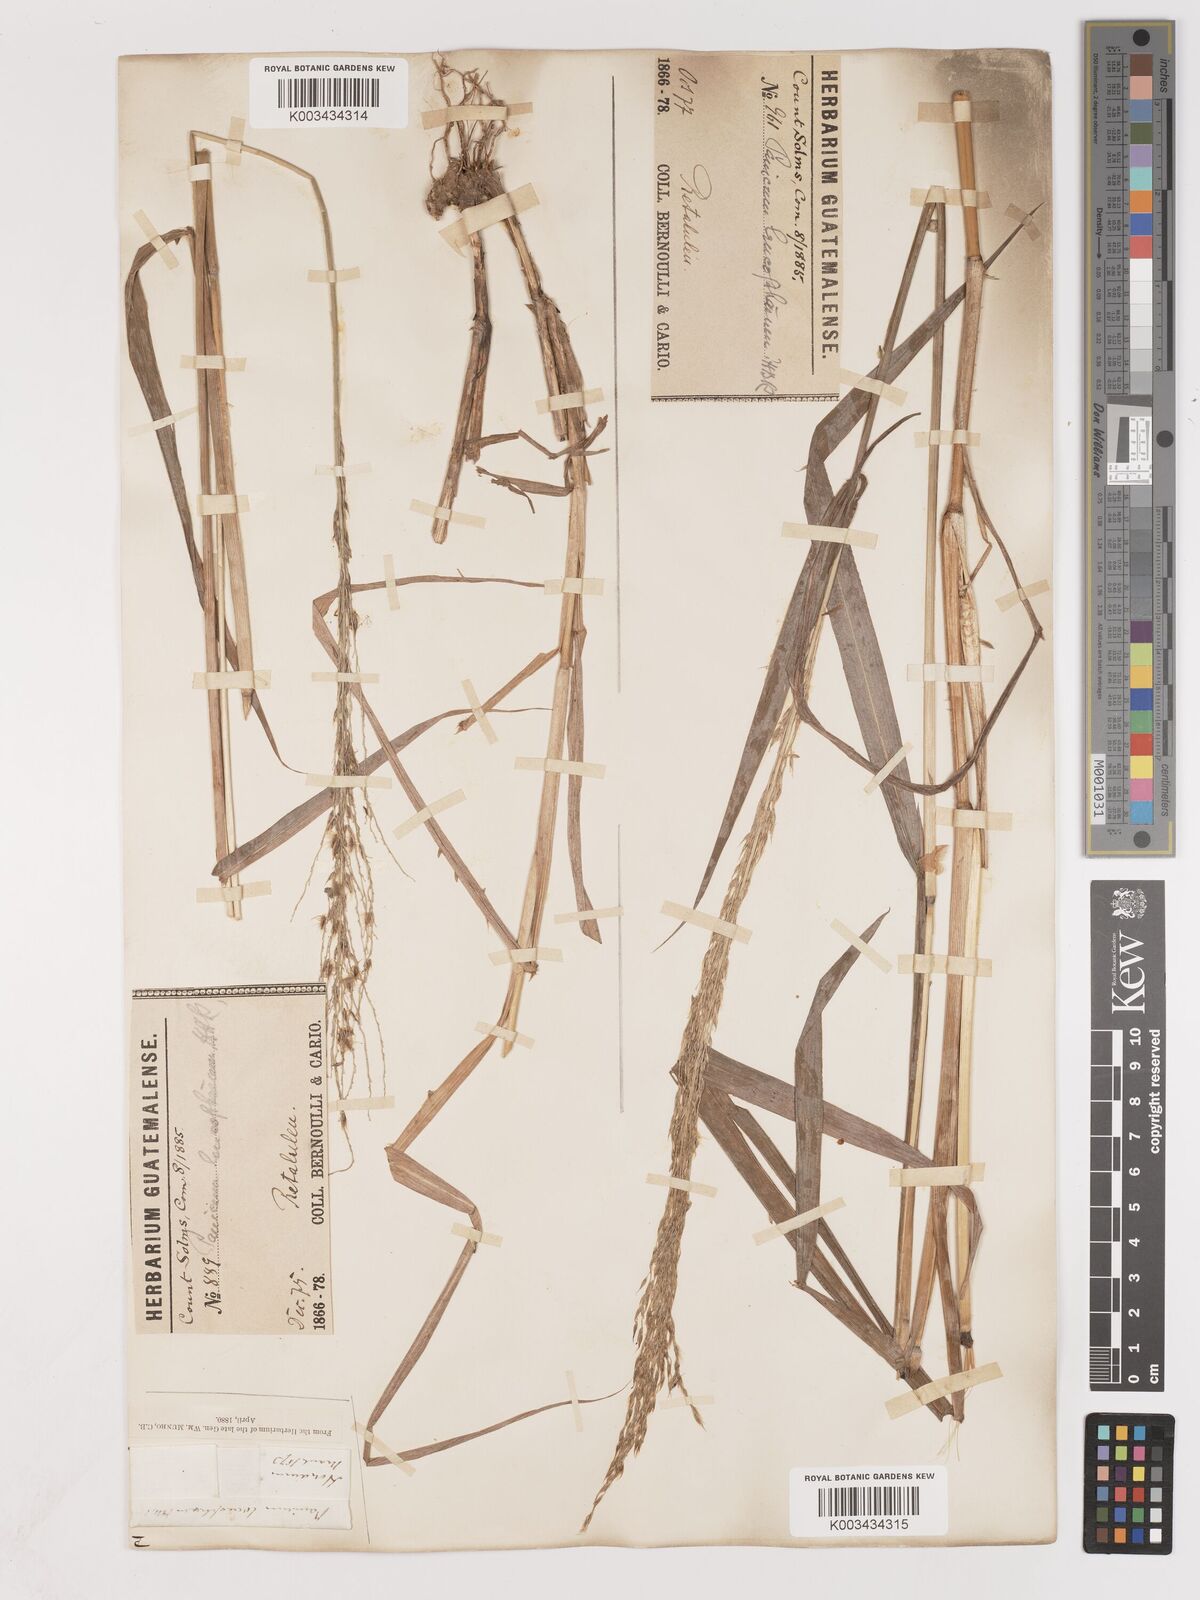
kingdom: Plantae
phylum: Tracheophyta
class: Liliopsida
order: Poales
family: Poaceae
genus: Digitaria
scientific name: Digitaria insularis
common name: Sourgrass
